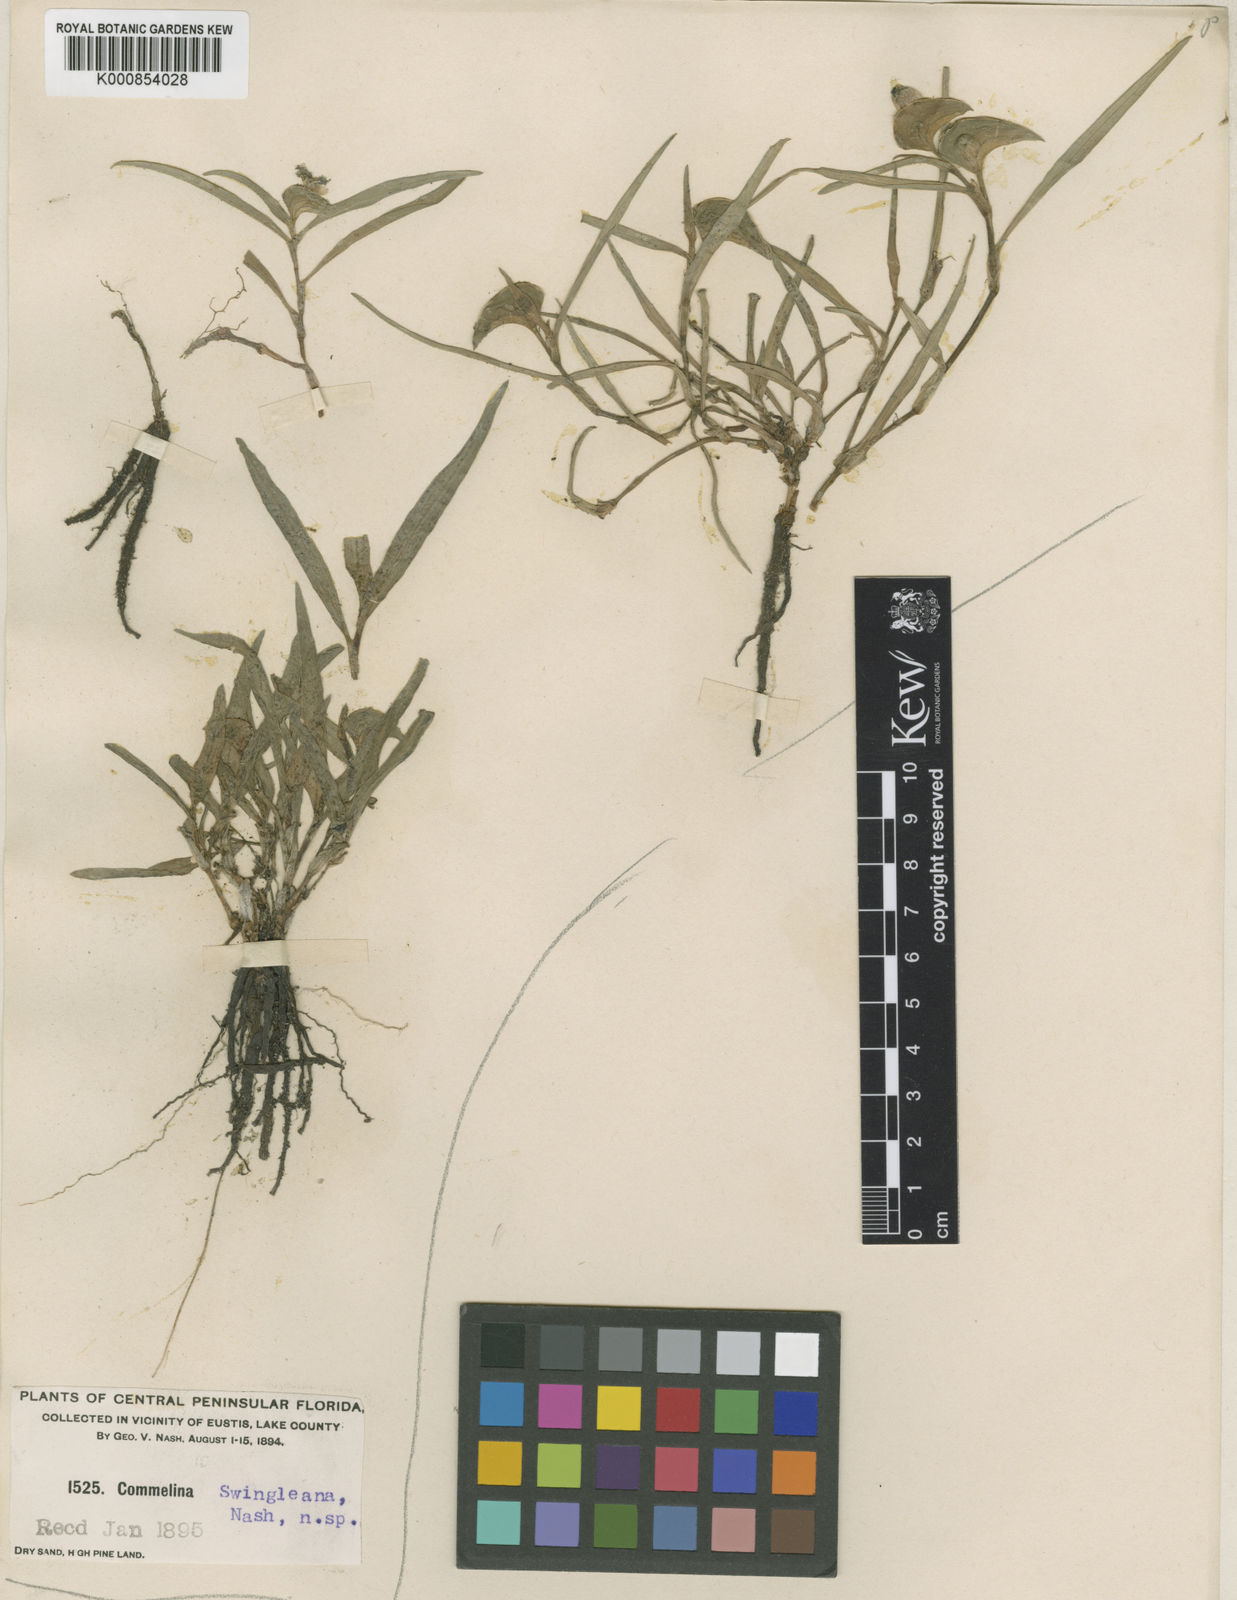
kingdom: Plantae
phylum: Tracheophyta
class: Liliopsida
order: Commelinales
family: Commelinaceae
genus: Commelina
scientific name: Commelina erecta
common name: Blousel blommetjie
